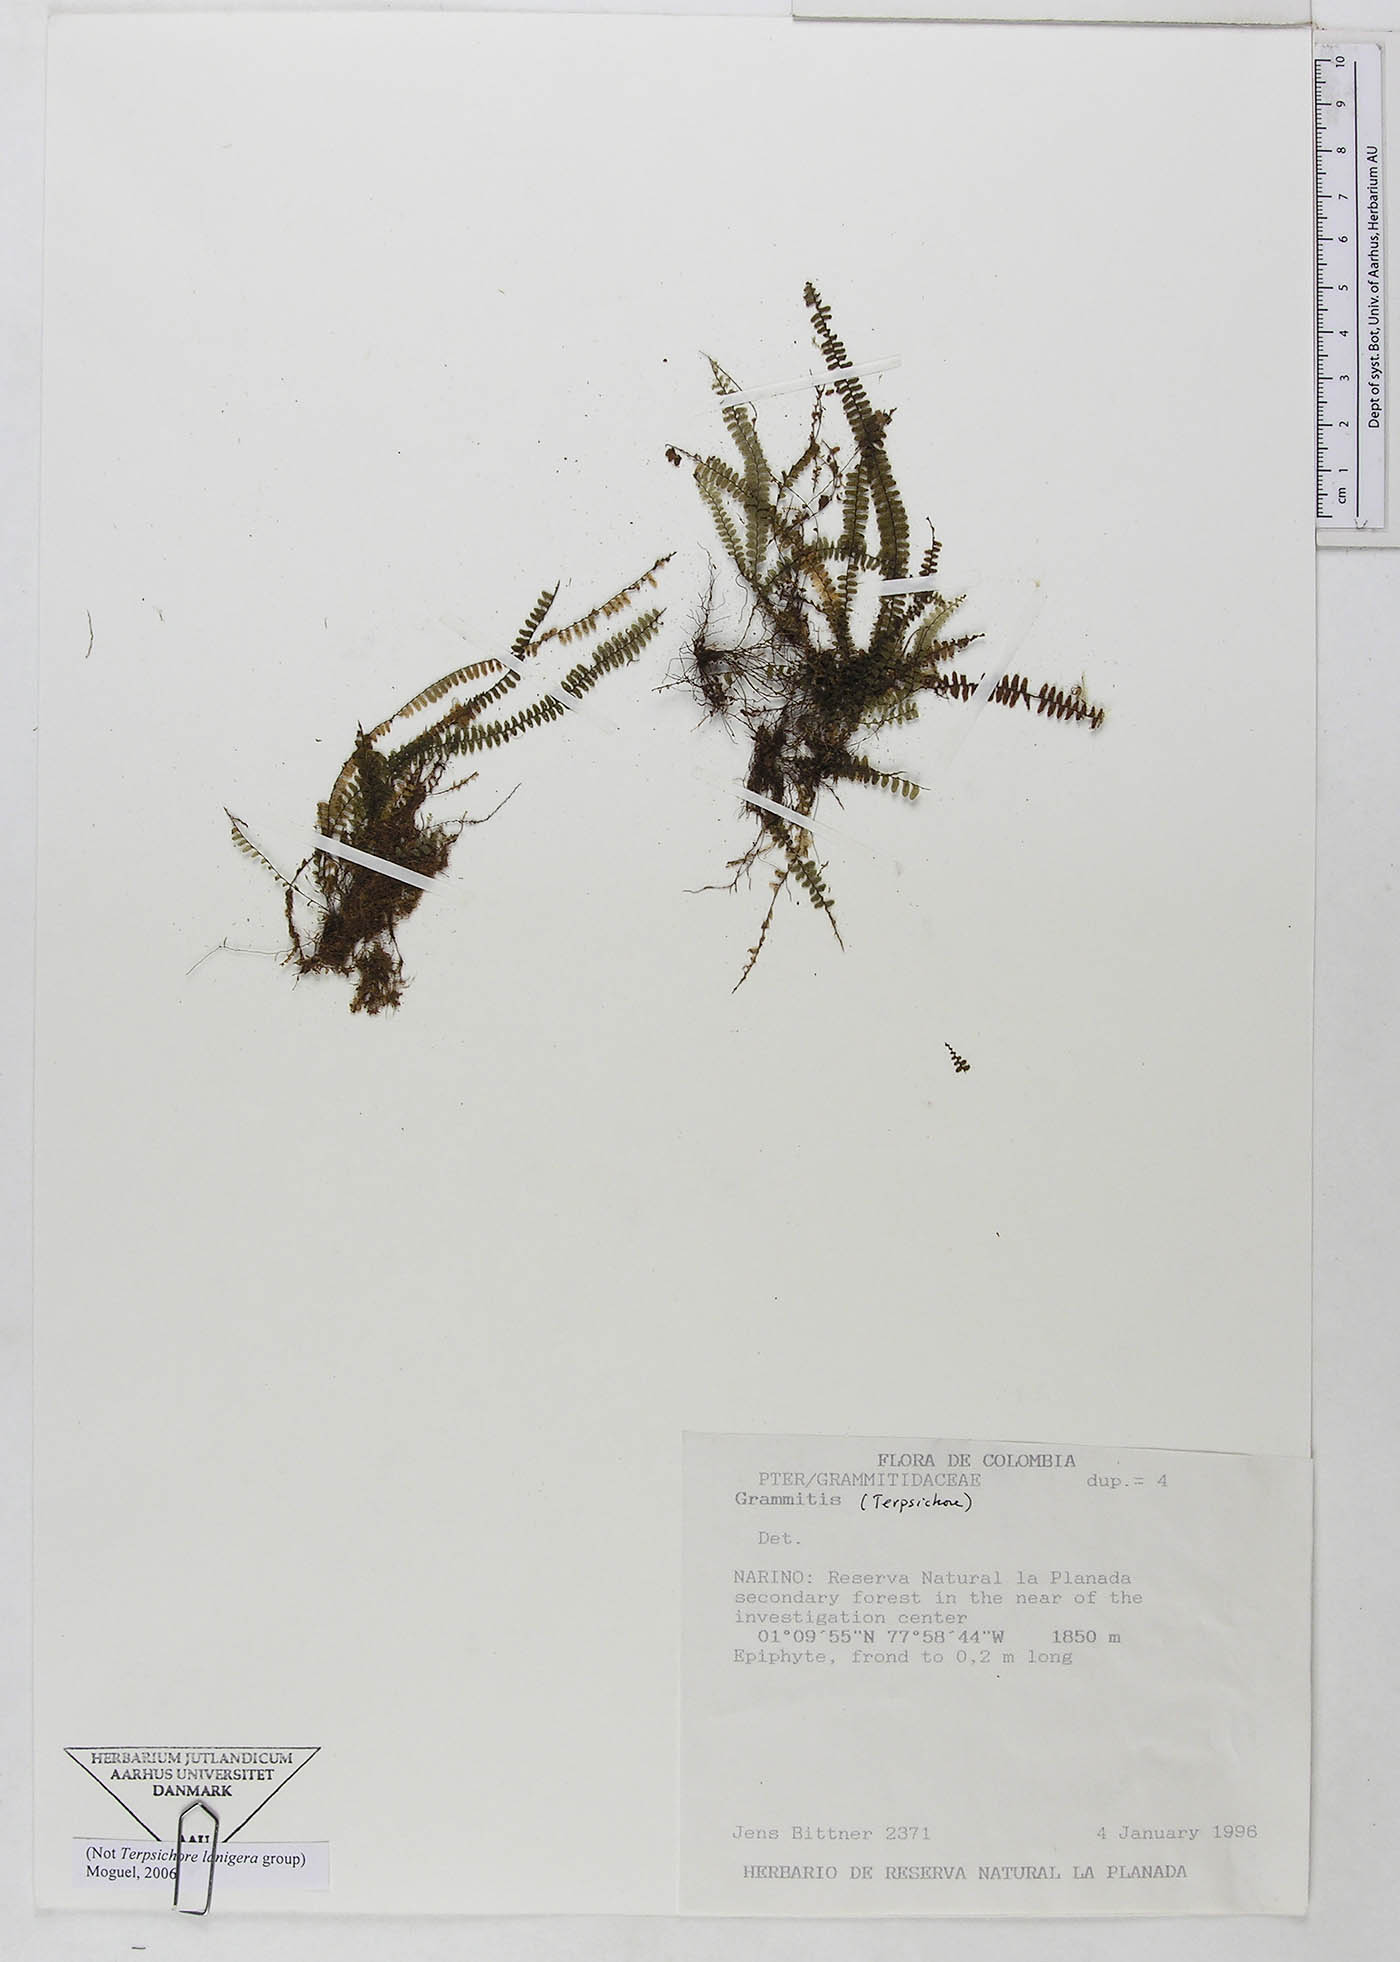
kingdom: Plantae
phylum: Tracheophyta
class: Polypodiopsida
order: Polypodiales
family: Polypodiaceae
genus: Grammitis
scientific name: Grammitis
